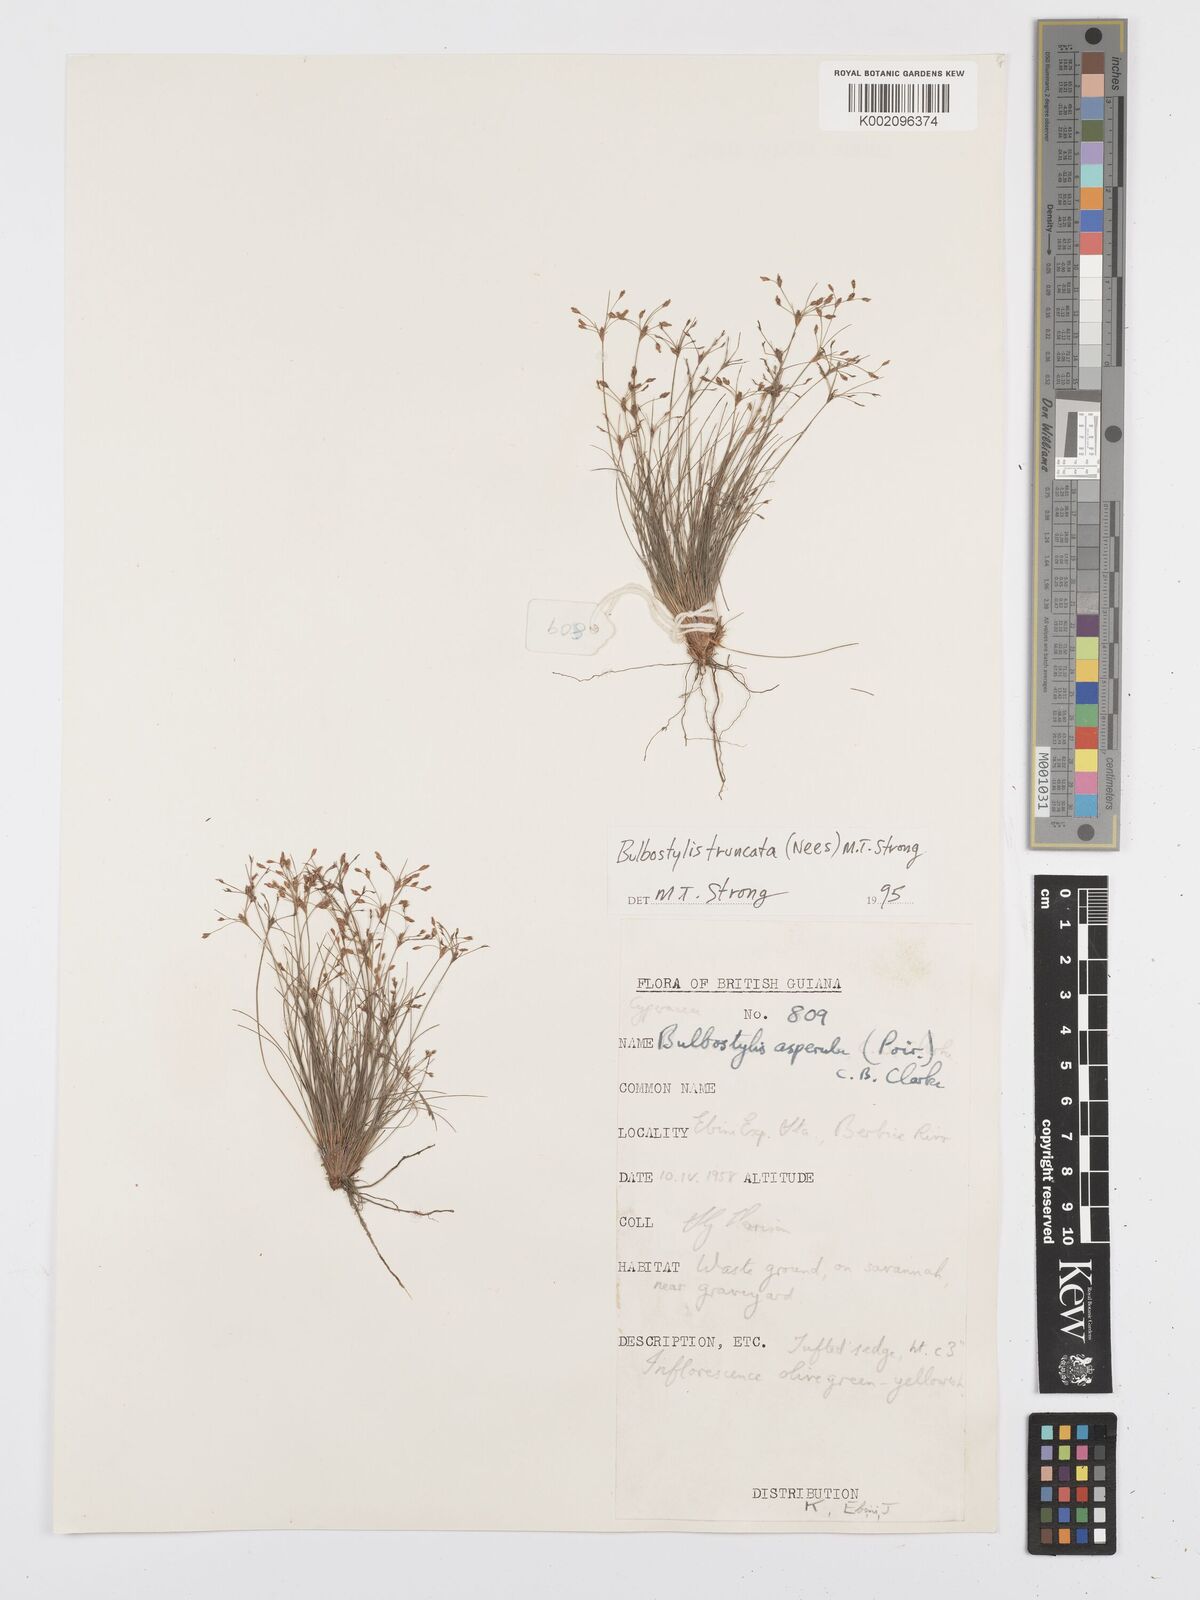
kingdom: Plantae
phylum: Tracheophyta
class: Liliopsida
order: Poales
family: Cyperaceae
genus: Bulbostylis
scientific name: Bulbostylis truncata
